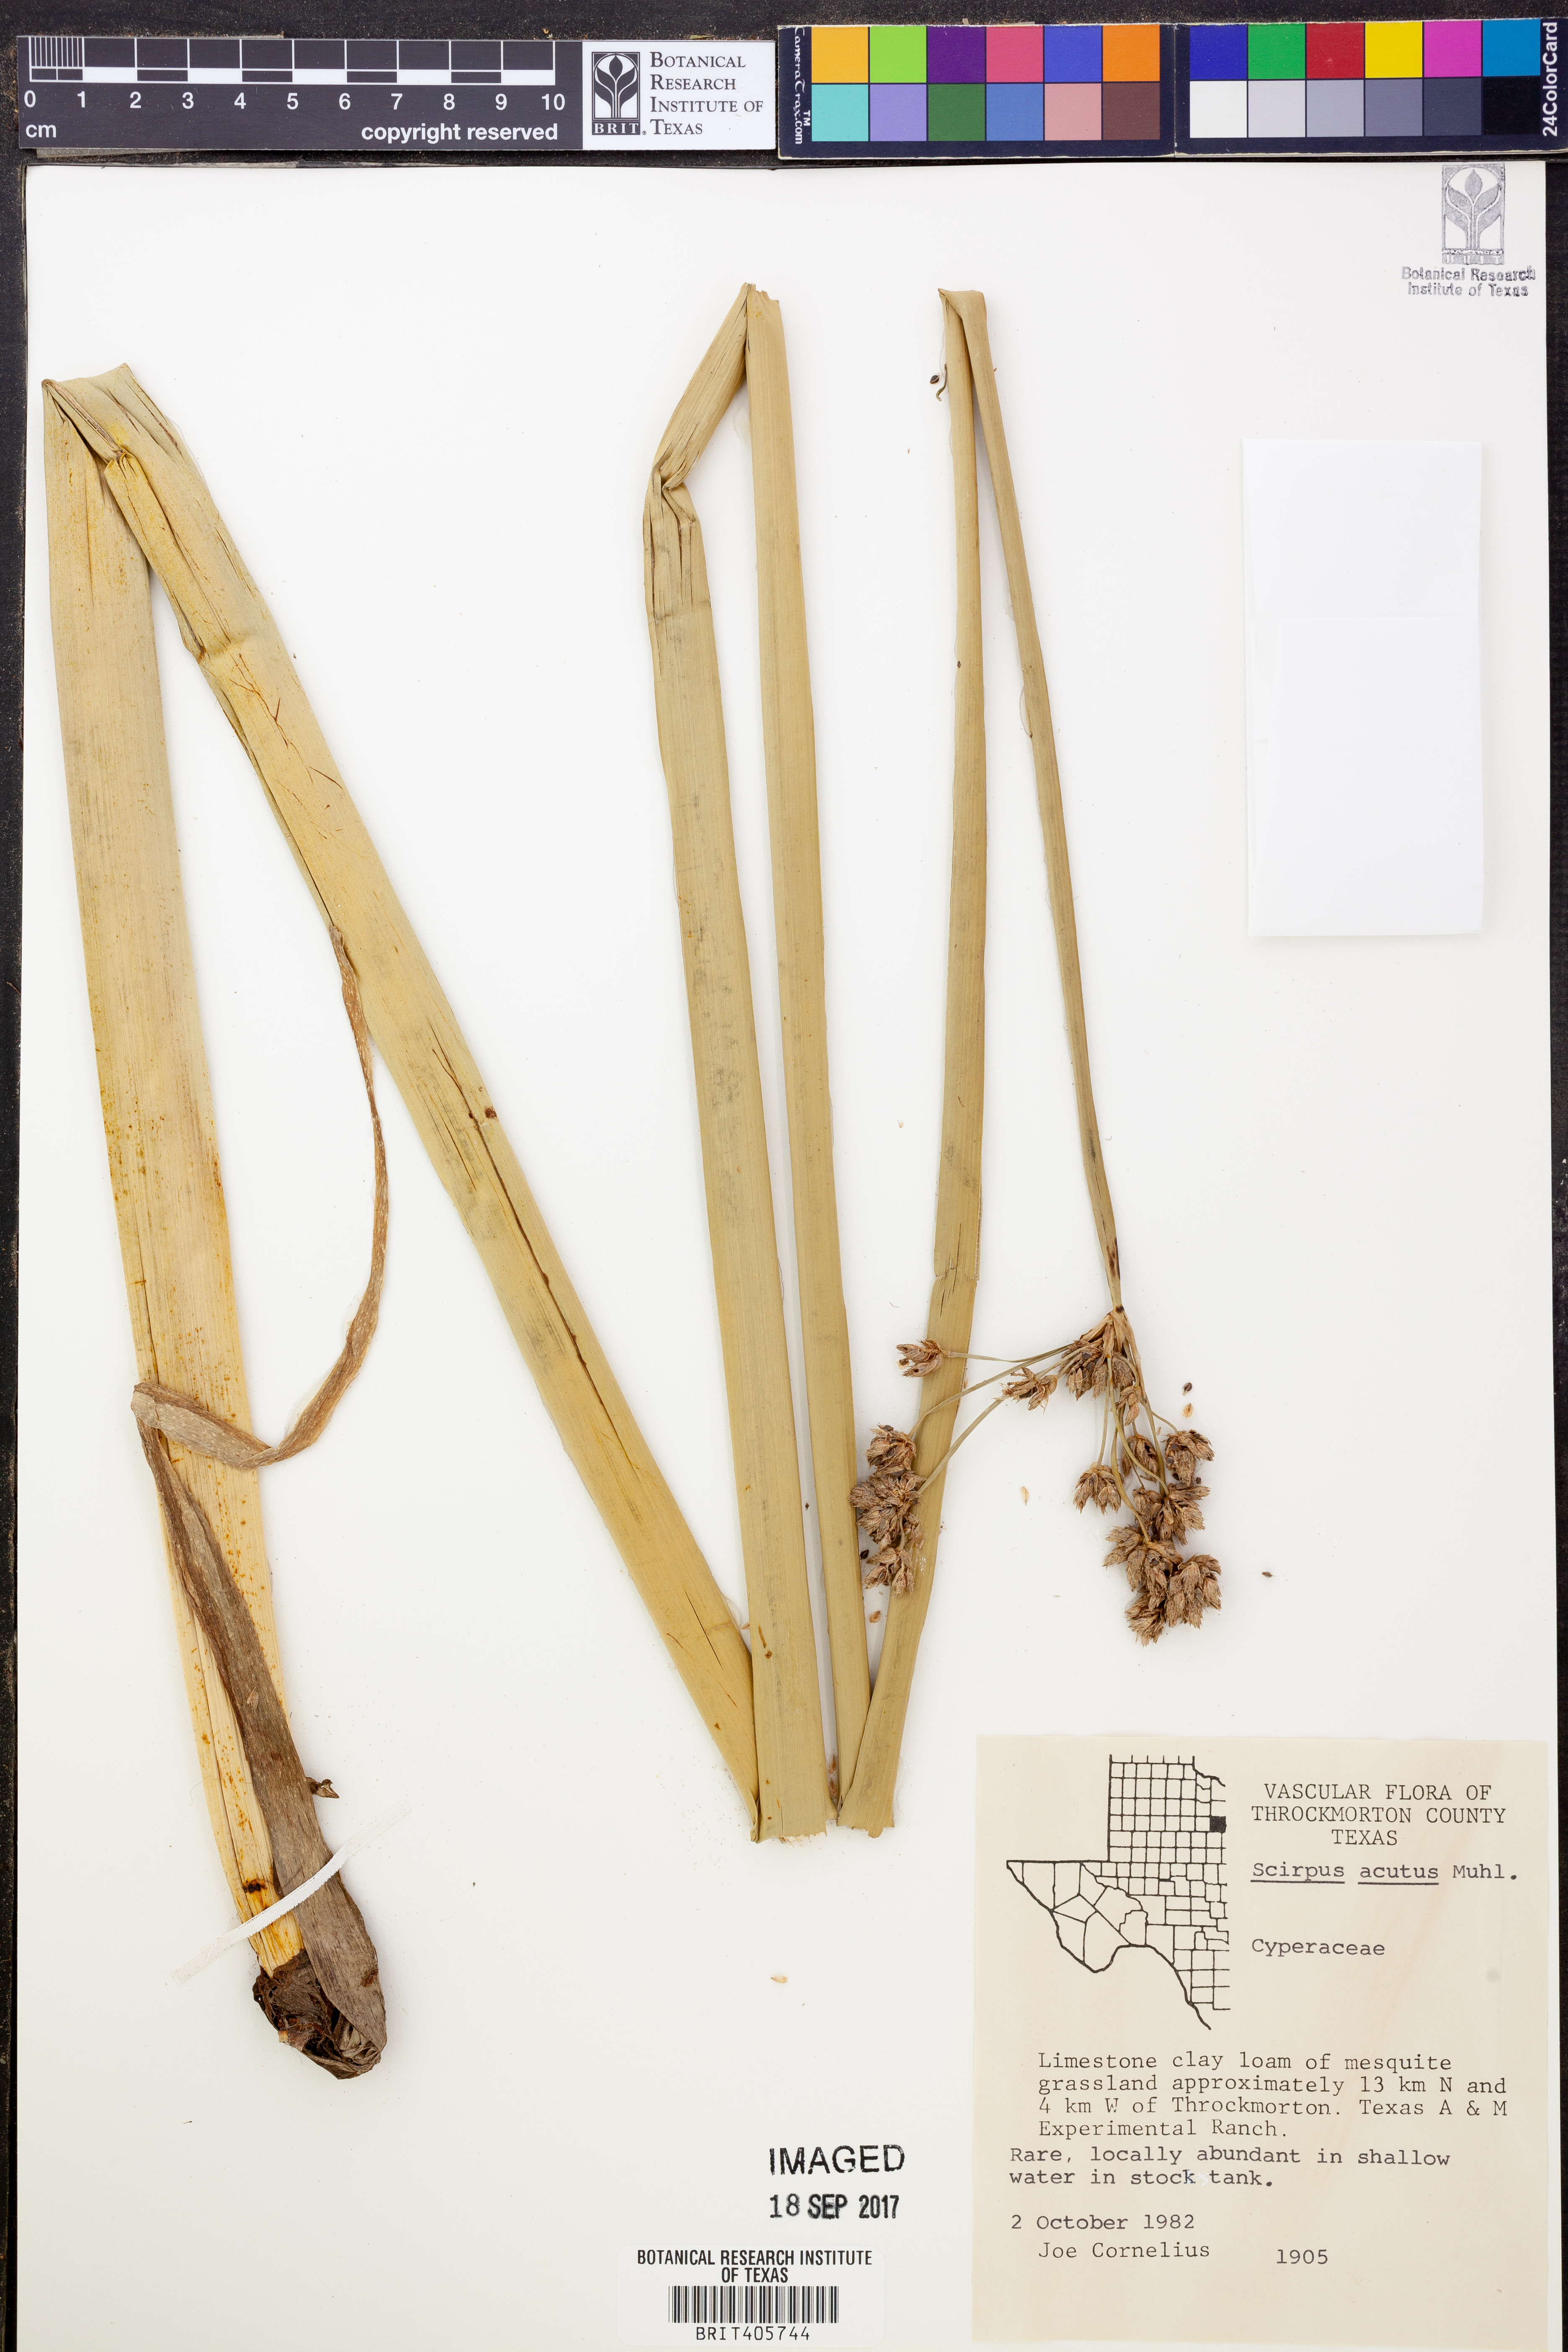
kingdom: Plantae
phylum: Tracheophyta
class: Liliopsida
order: Poales
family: Cyperaceae
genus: Scirpus
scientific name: Scirpus acutus
